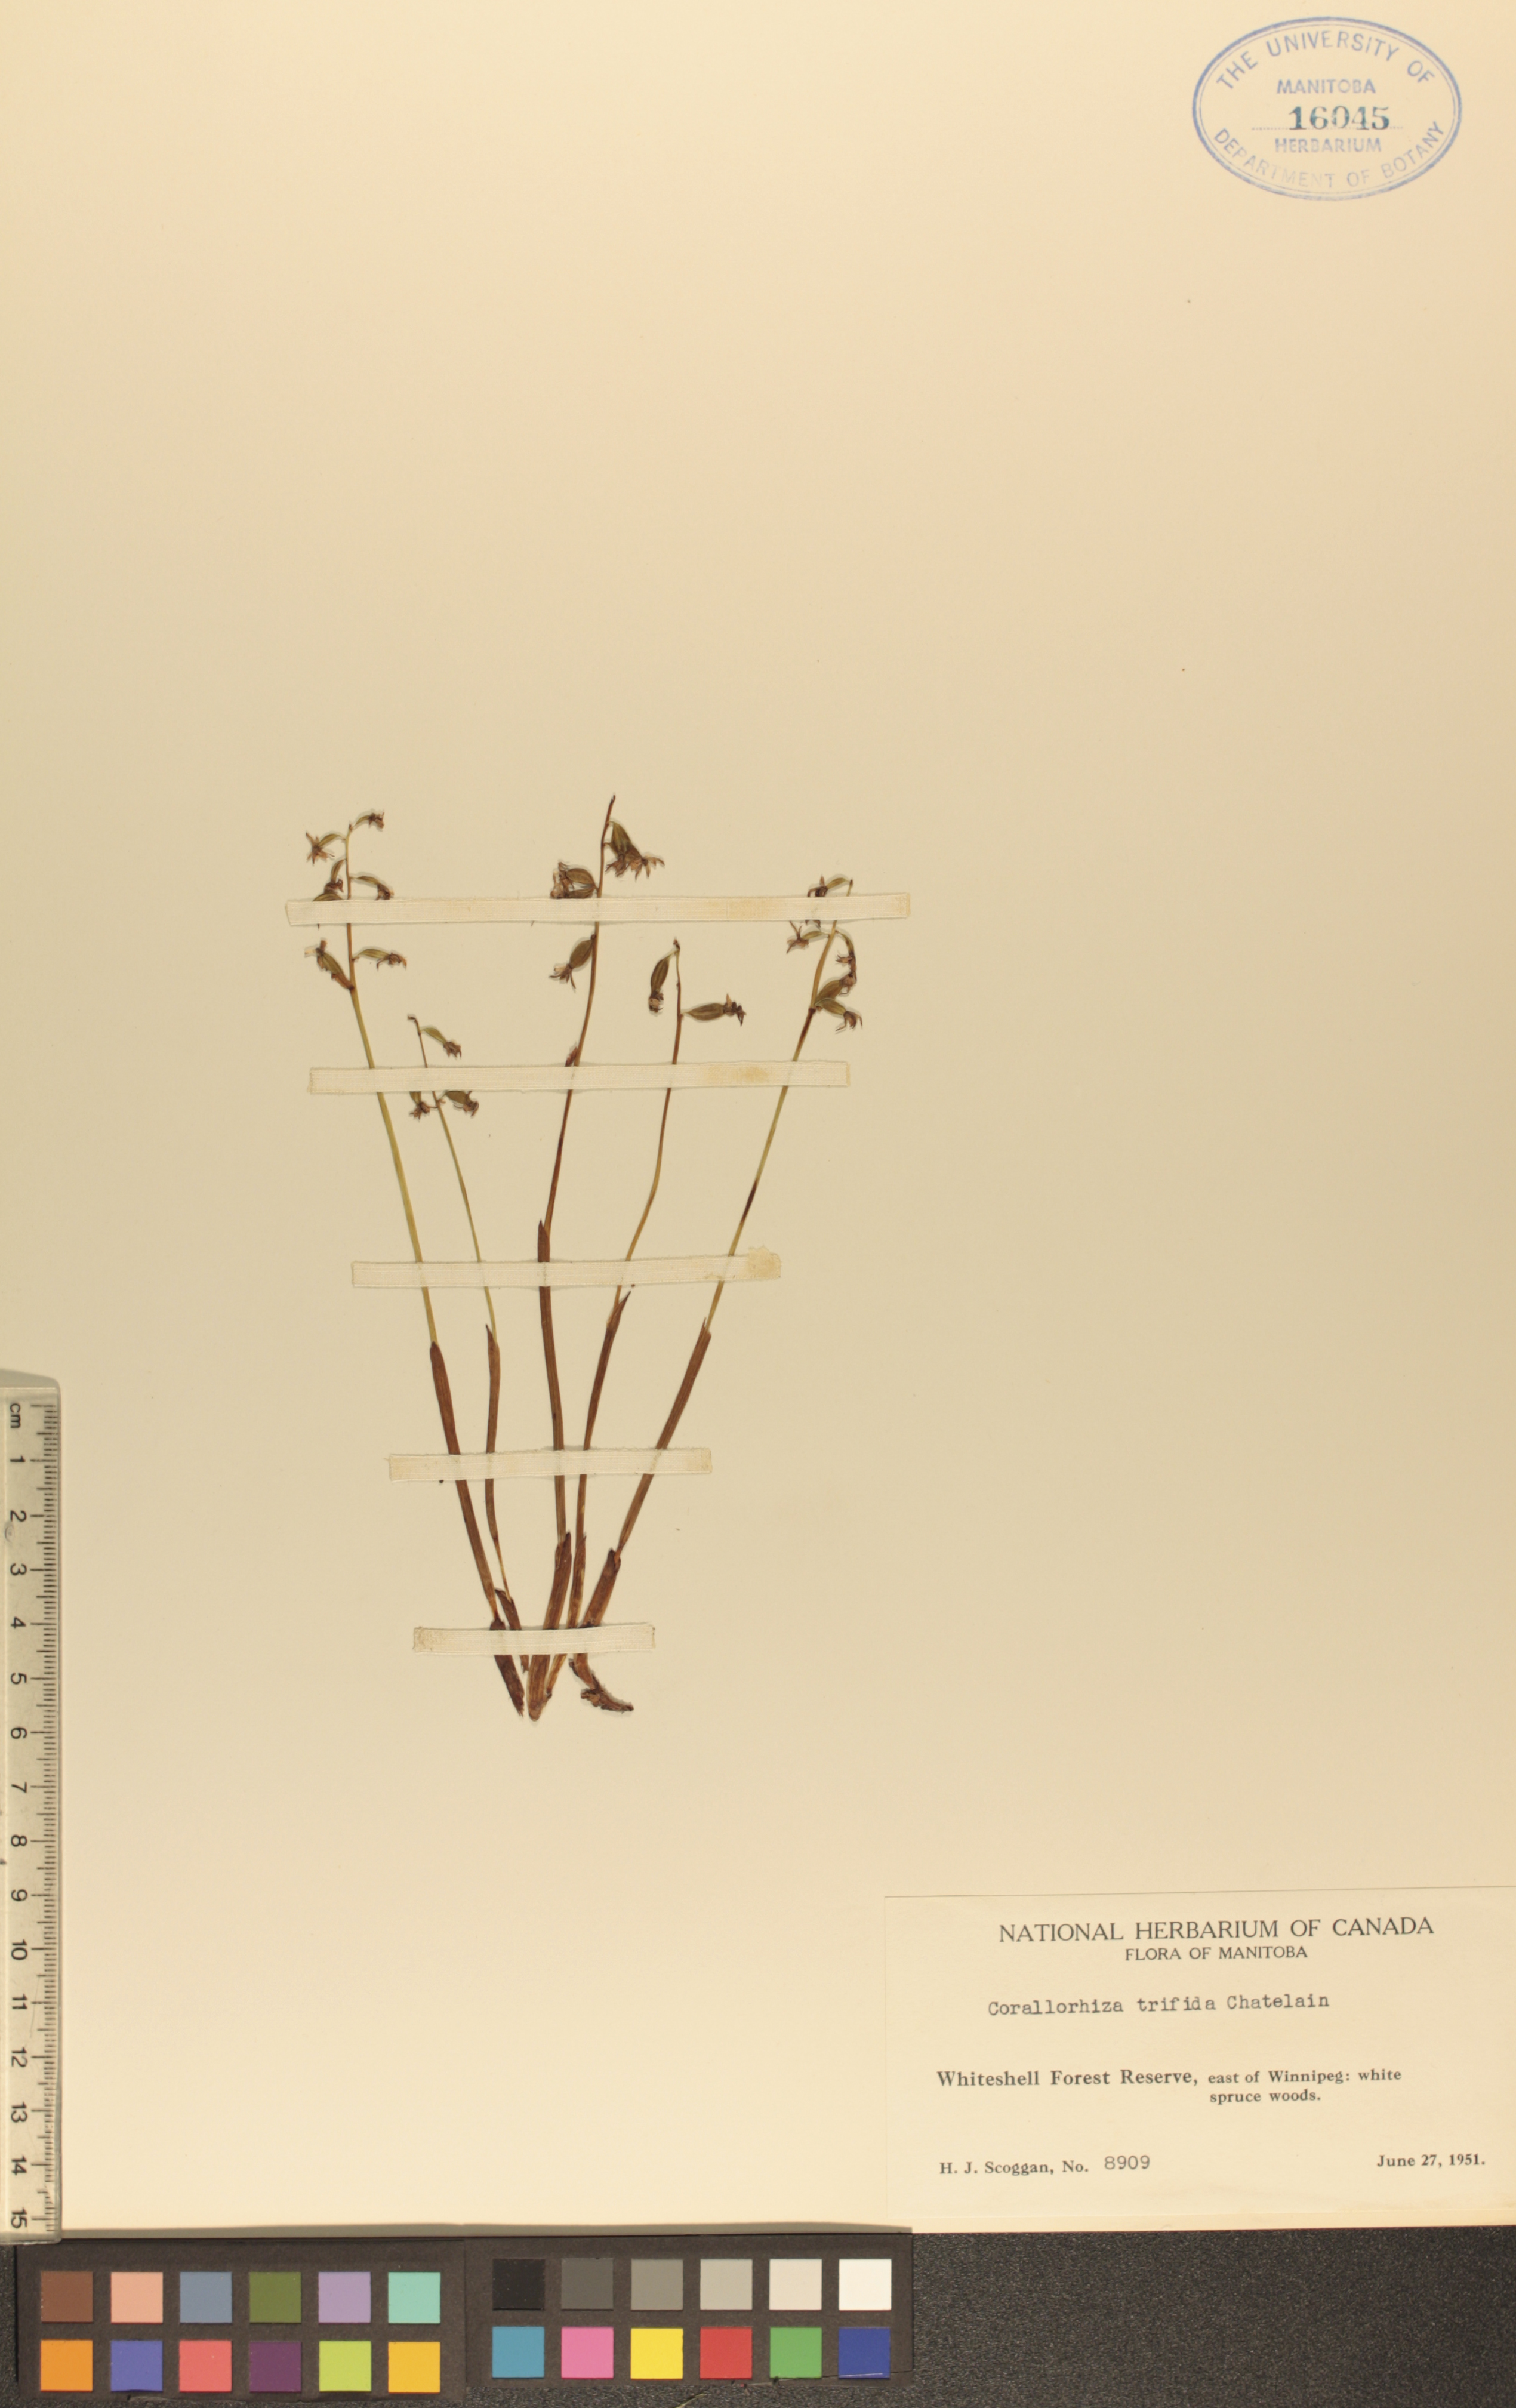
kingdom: Plantae
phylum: Tracheophyta
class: Liliopsida
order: Asparagales
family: Orchidaceae
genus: Corallorhiza
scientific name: Corallorhiza trifida
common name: Yellow coralroot
